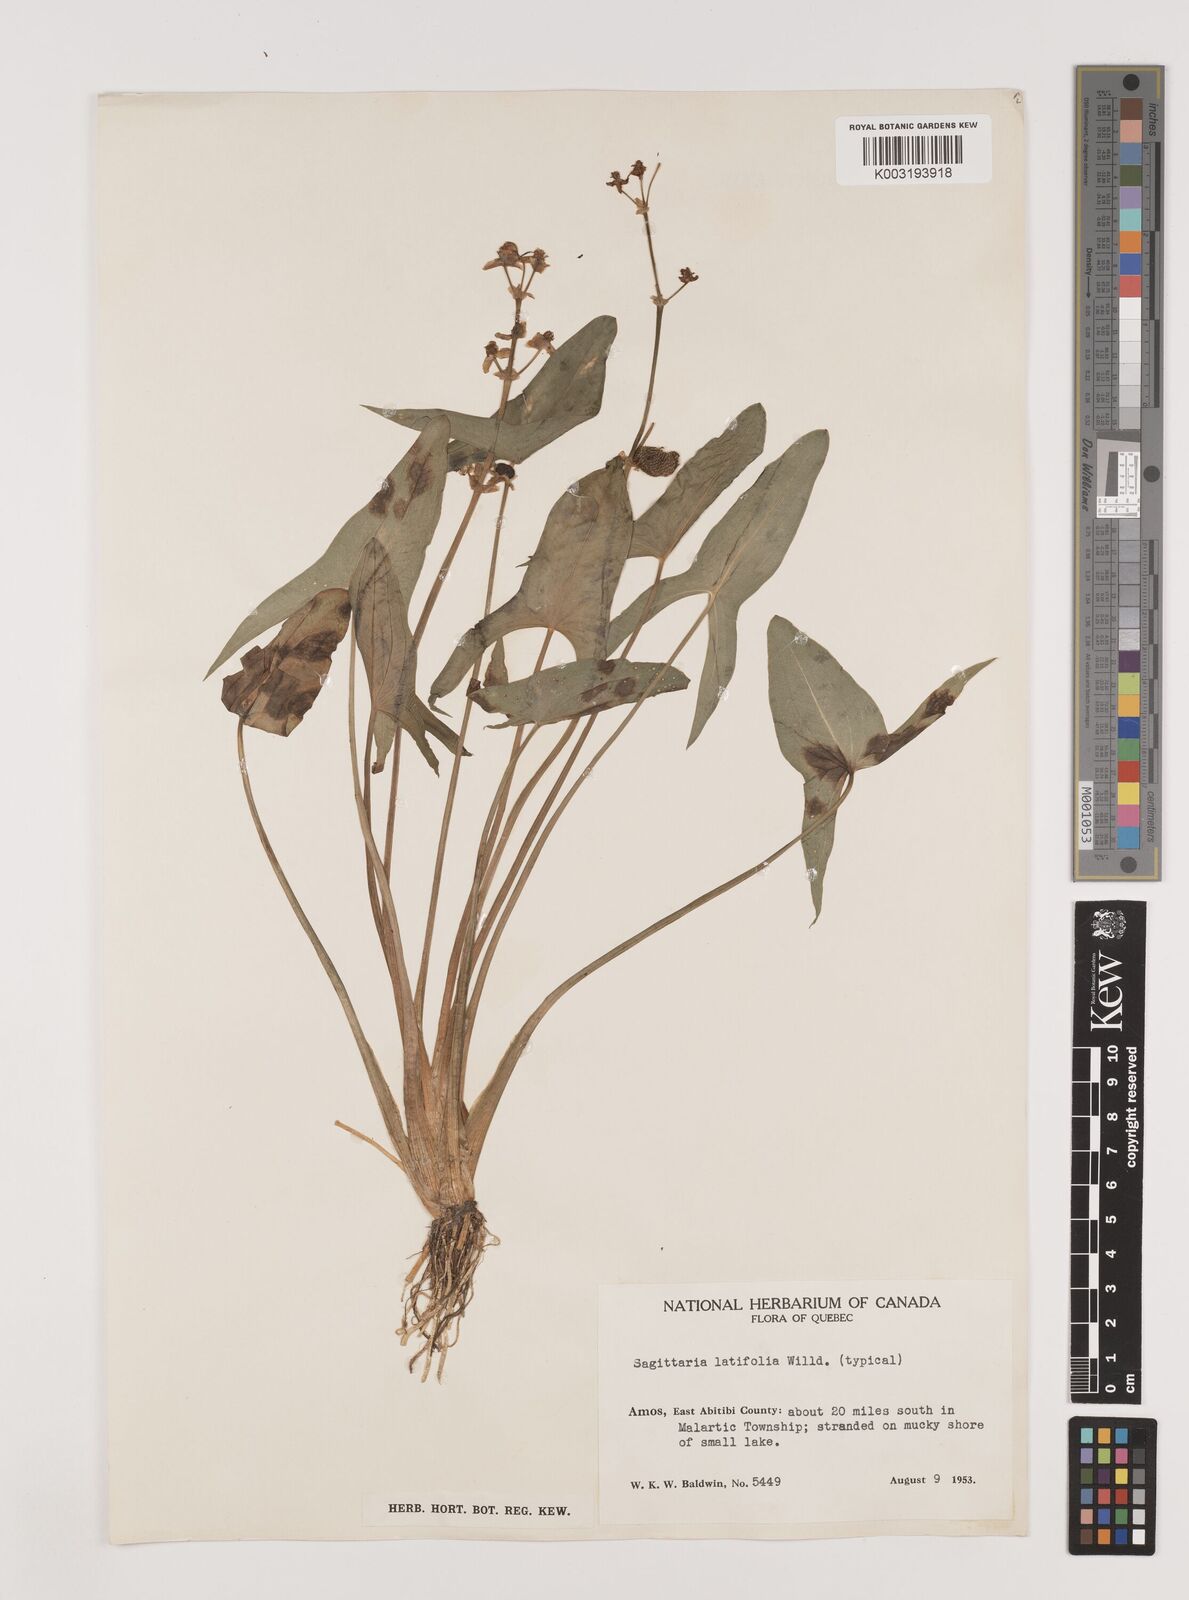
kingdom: Plantae
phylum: Tracheophyta
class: Liliopsida
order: Alismatales
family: Alismataceae
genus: Sagittaria
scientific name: Sagittaria latifolia
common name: Duck-potato
